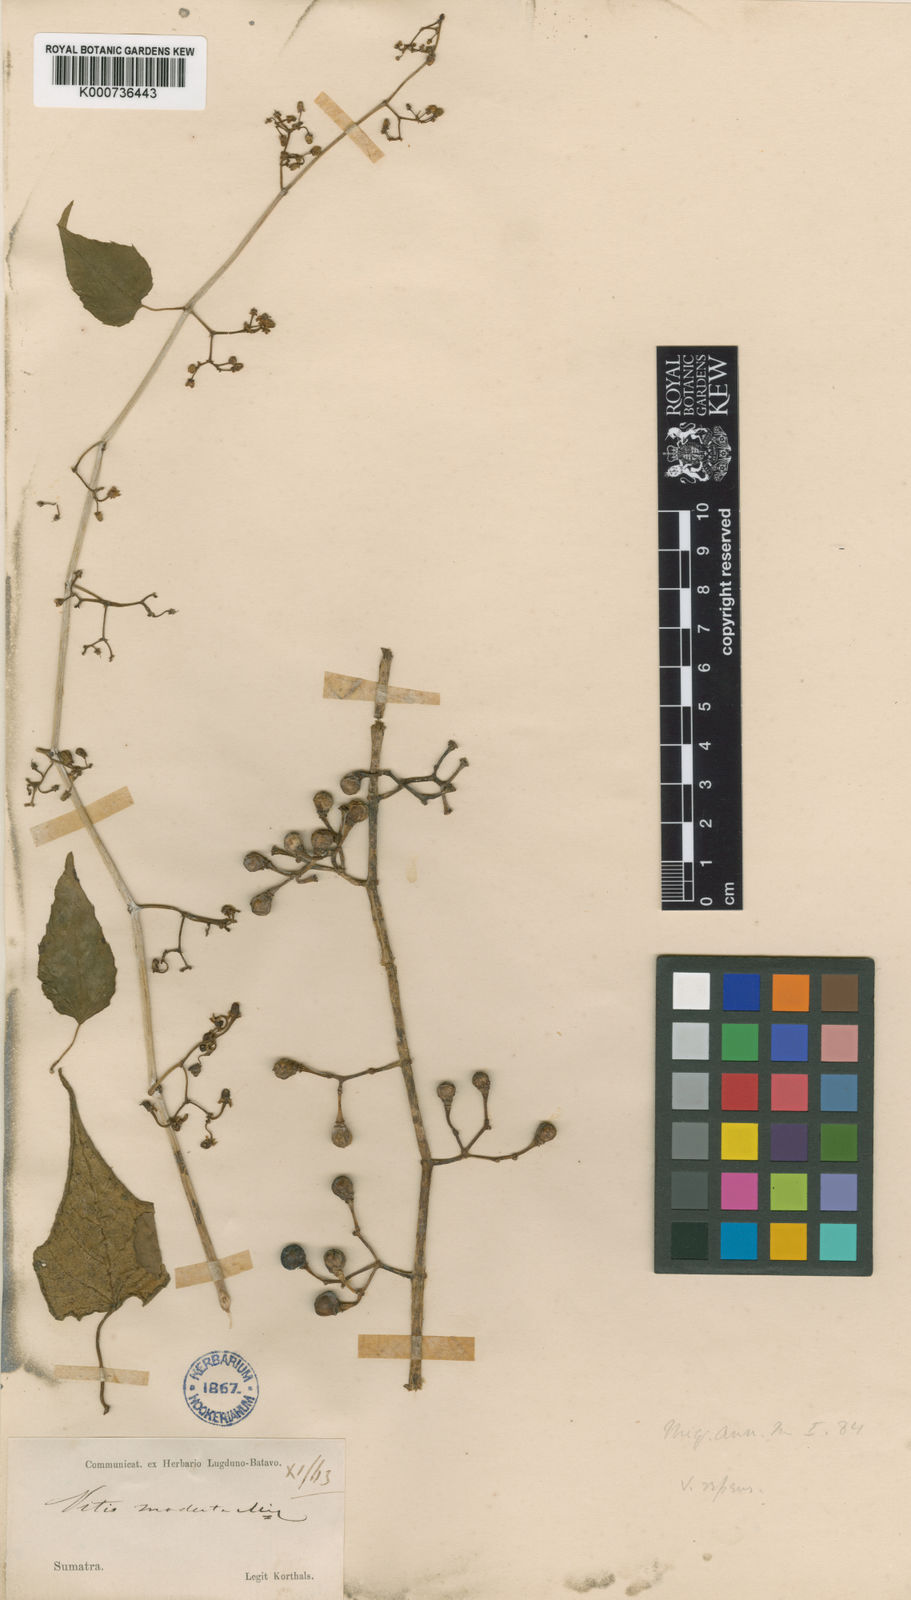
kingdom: Plantae
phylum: Tracheophyta
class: Magnoliopsida
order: Vitales
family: Vitaceae
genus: Cissus
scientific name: Cissus repens
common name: Cissus
